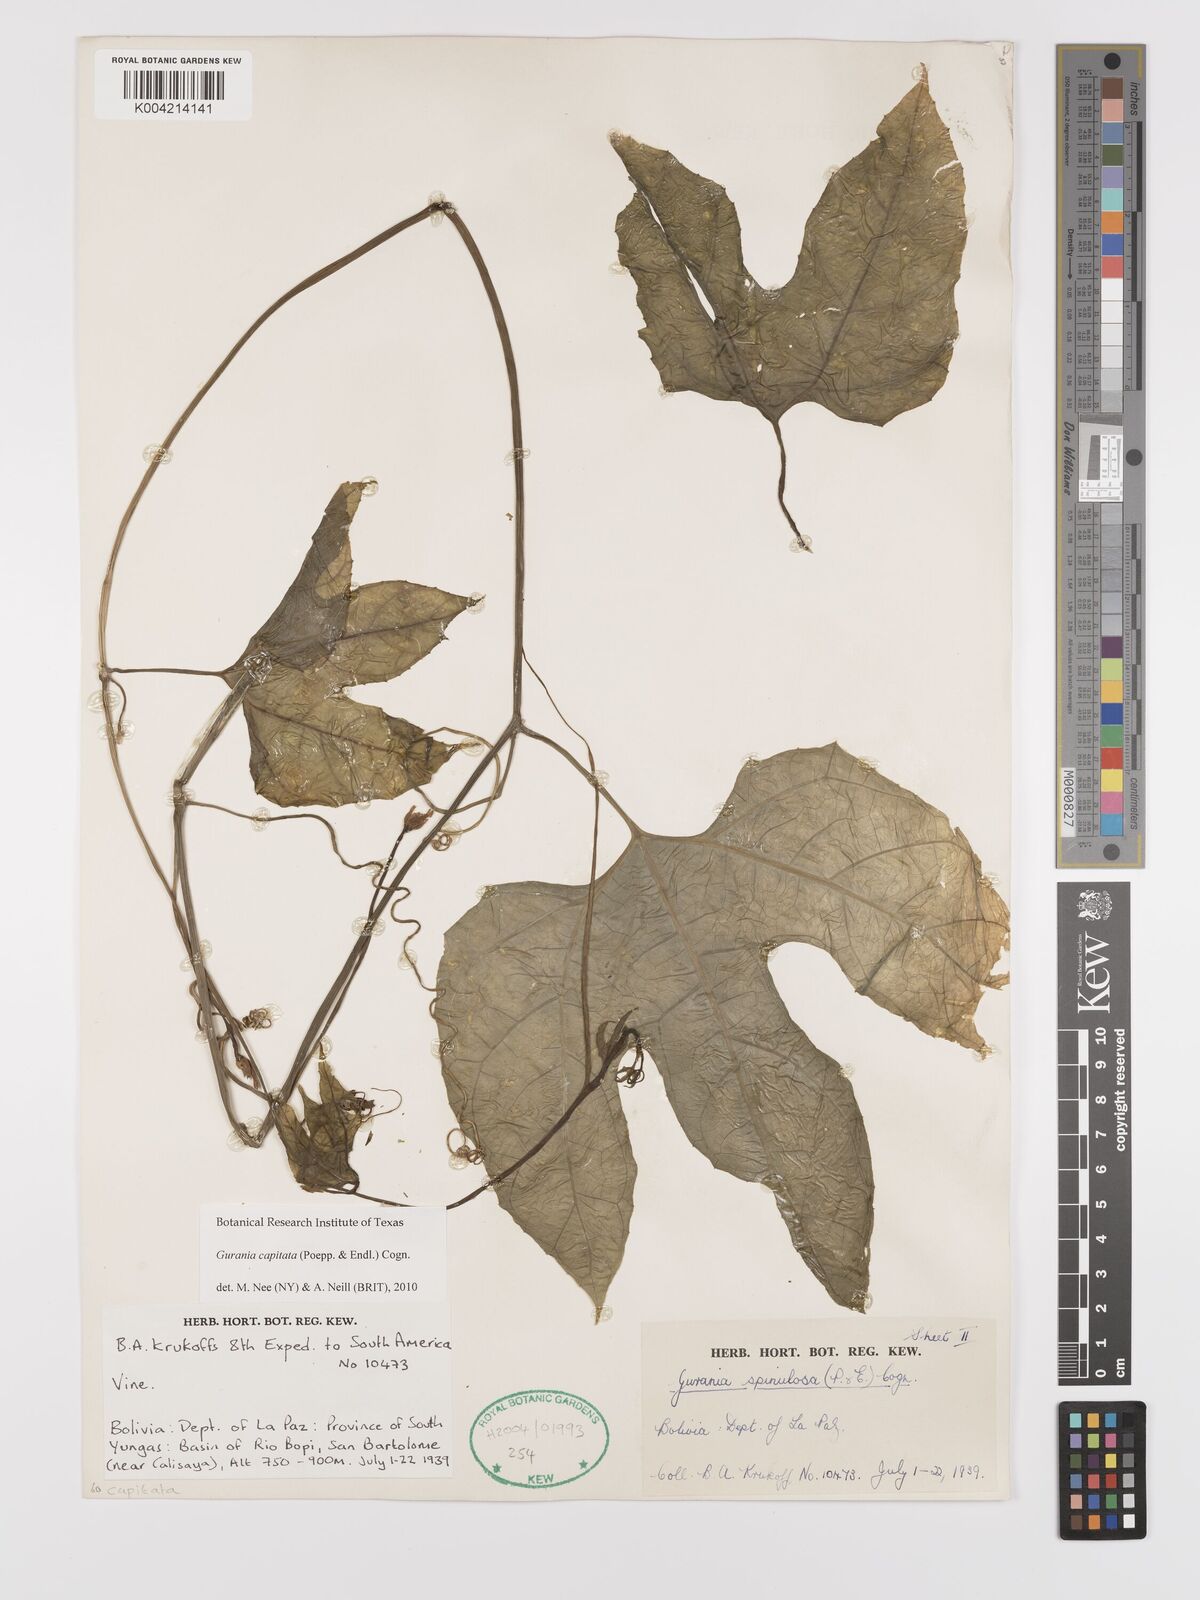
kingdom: Plantae
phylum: Tracheophyta
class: Magnoliopsida
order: Cucurbitales
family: Cucurbitaceae
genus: Gurania
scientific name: Gurania capitata
